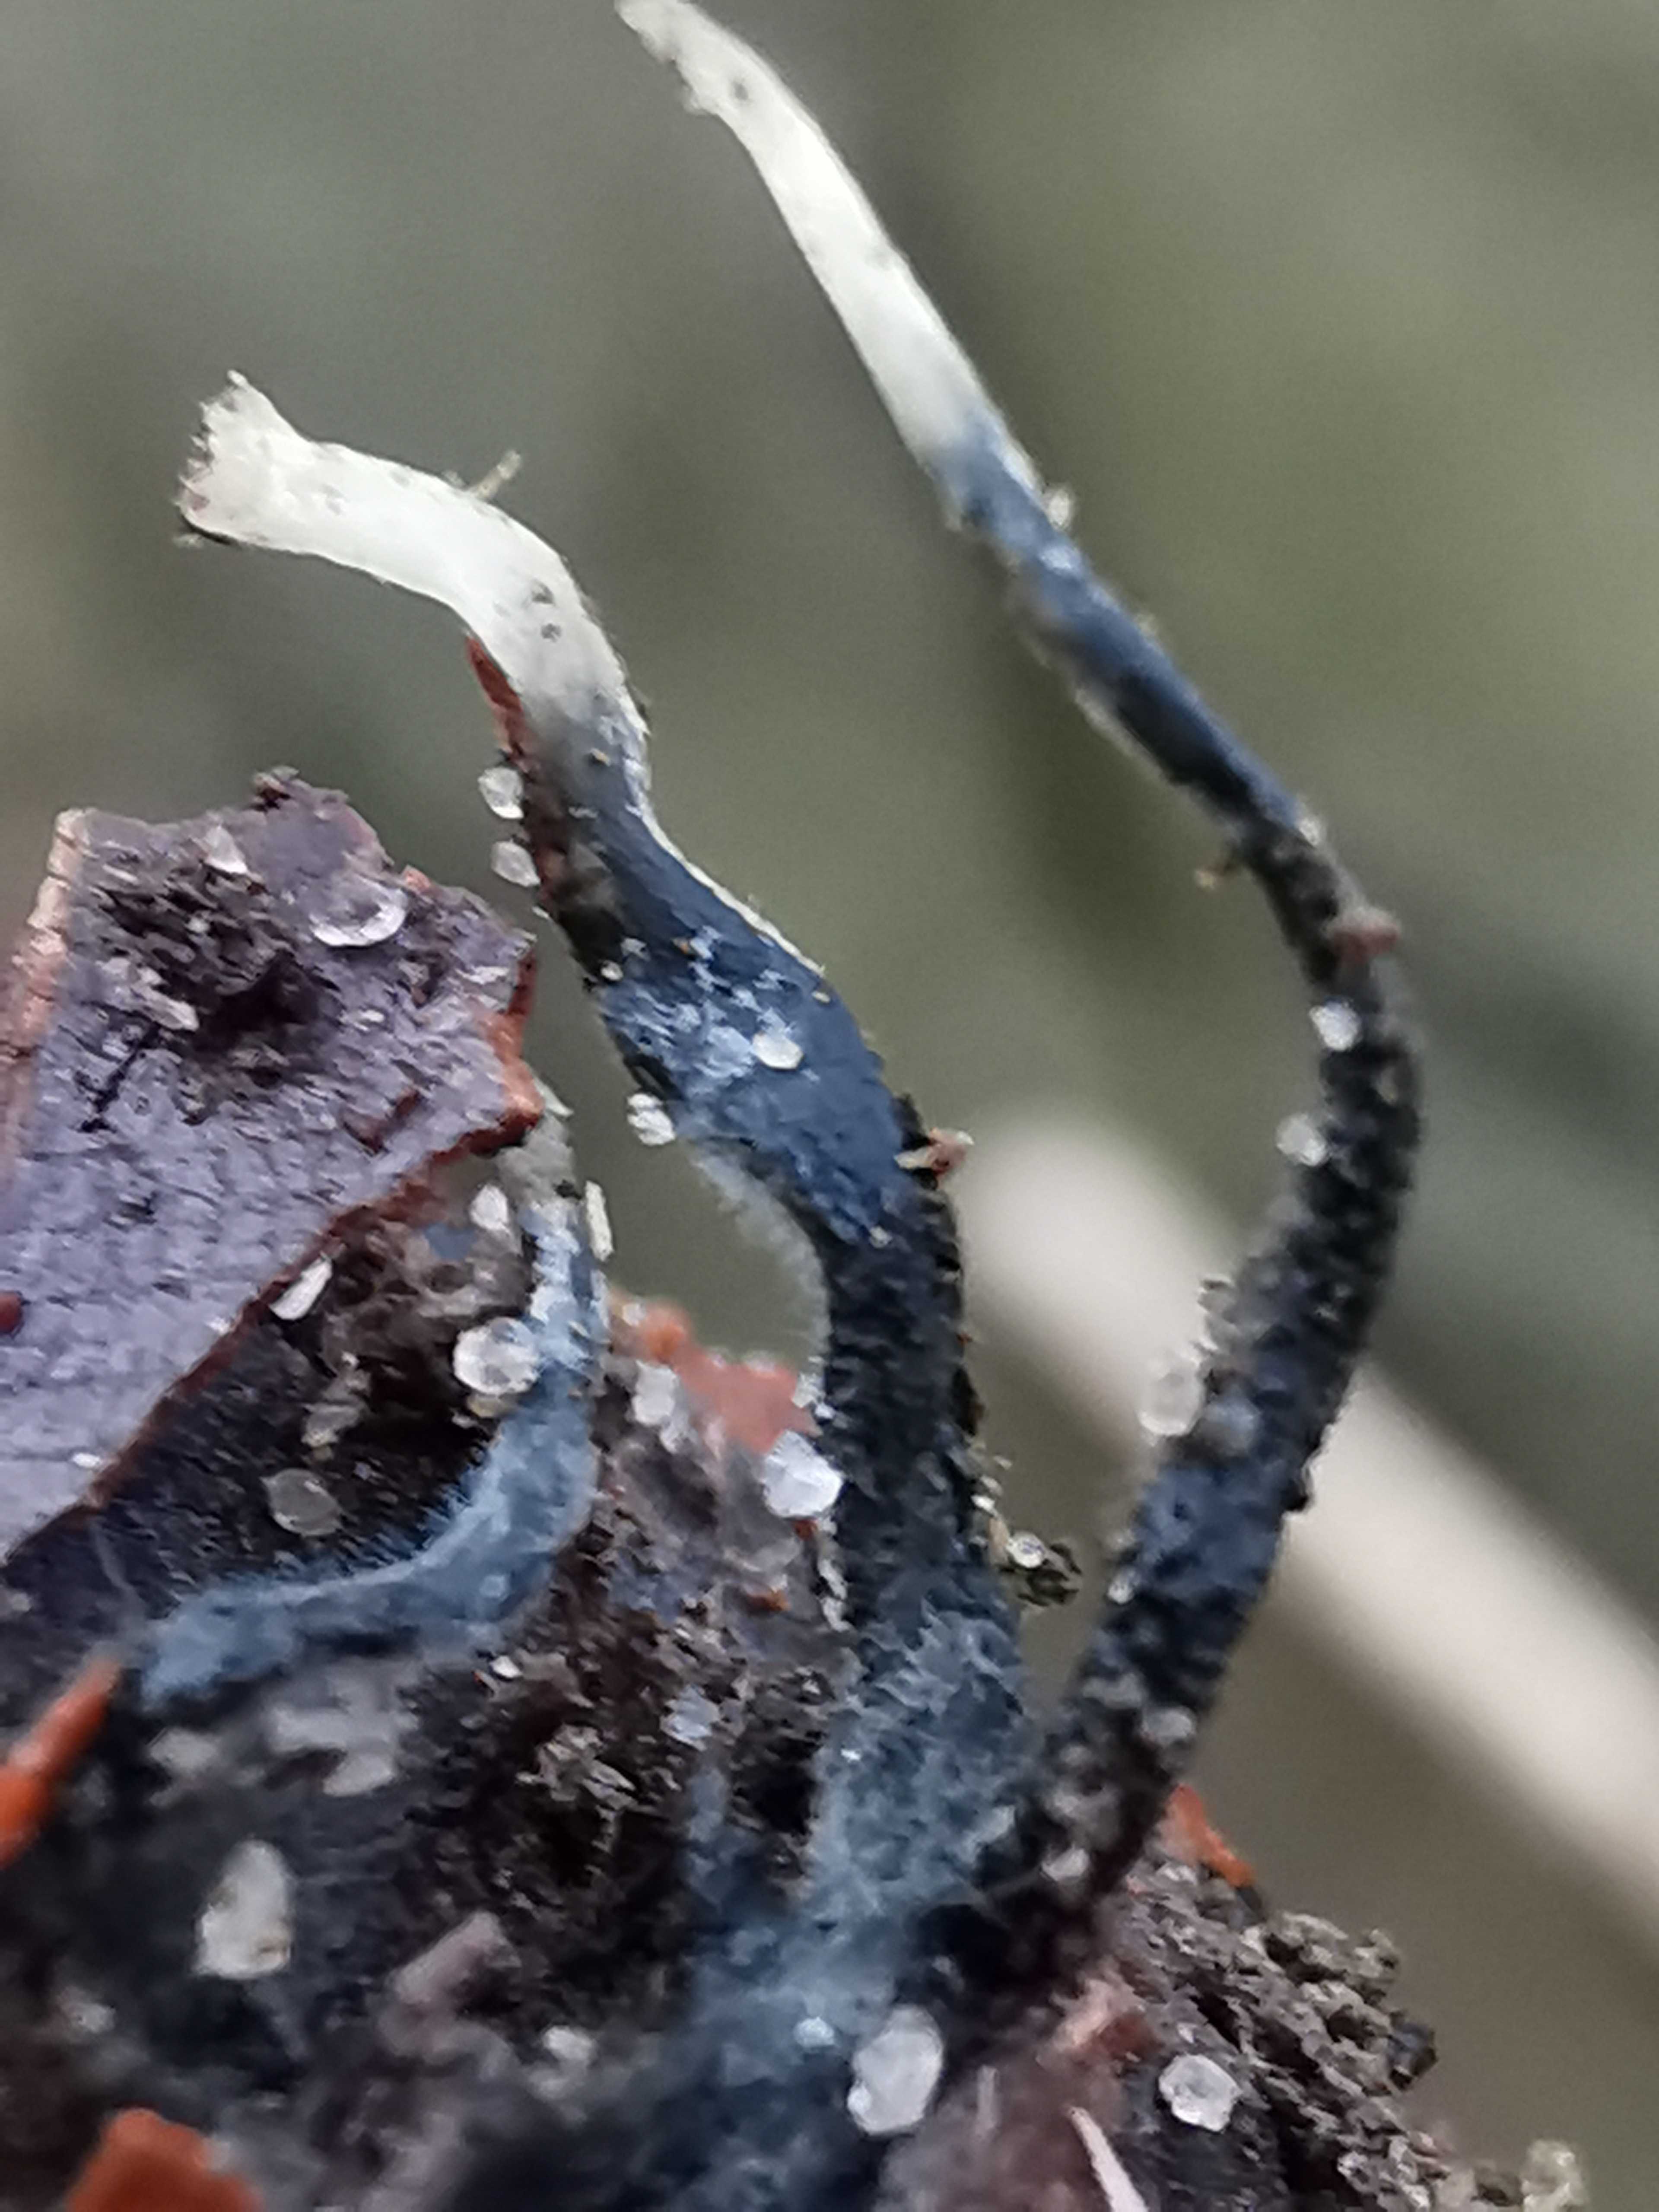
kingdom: Fungi
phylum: Ascomycota
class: Sordariomycetes
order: Xylariales
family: Xylariaceae
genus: Xylaria
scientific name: Xylaria carpophila
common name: bogskål-stødsvamp
